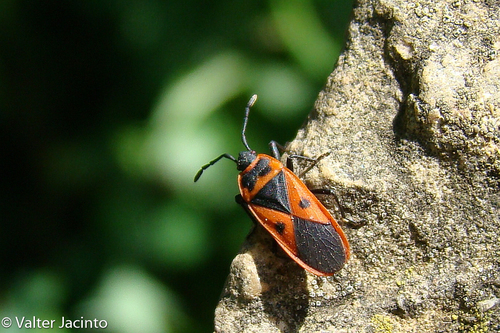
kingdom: Animalia
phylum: Arthropoda
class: Insecta
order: Hemiptera
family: Pyrrhocoridae
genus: Scantius
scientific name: Scantius aegyptius
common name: Red bug
